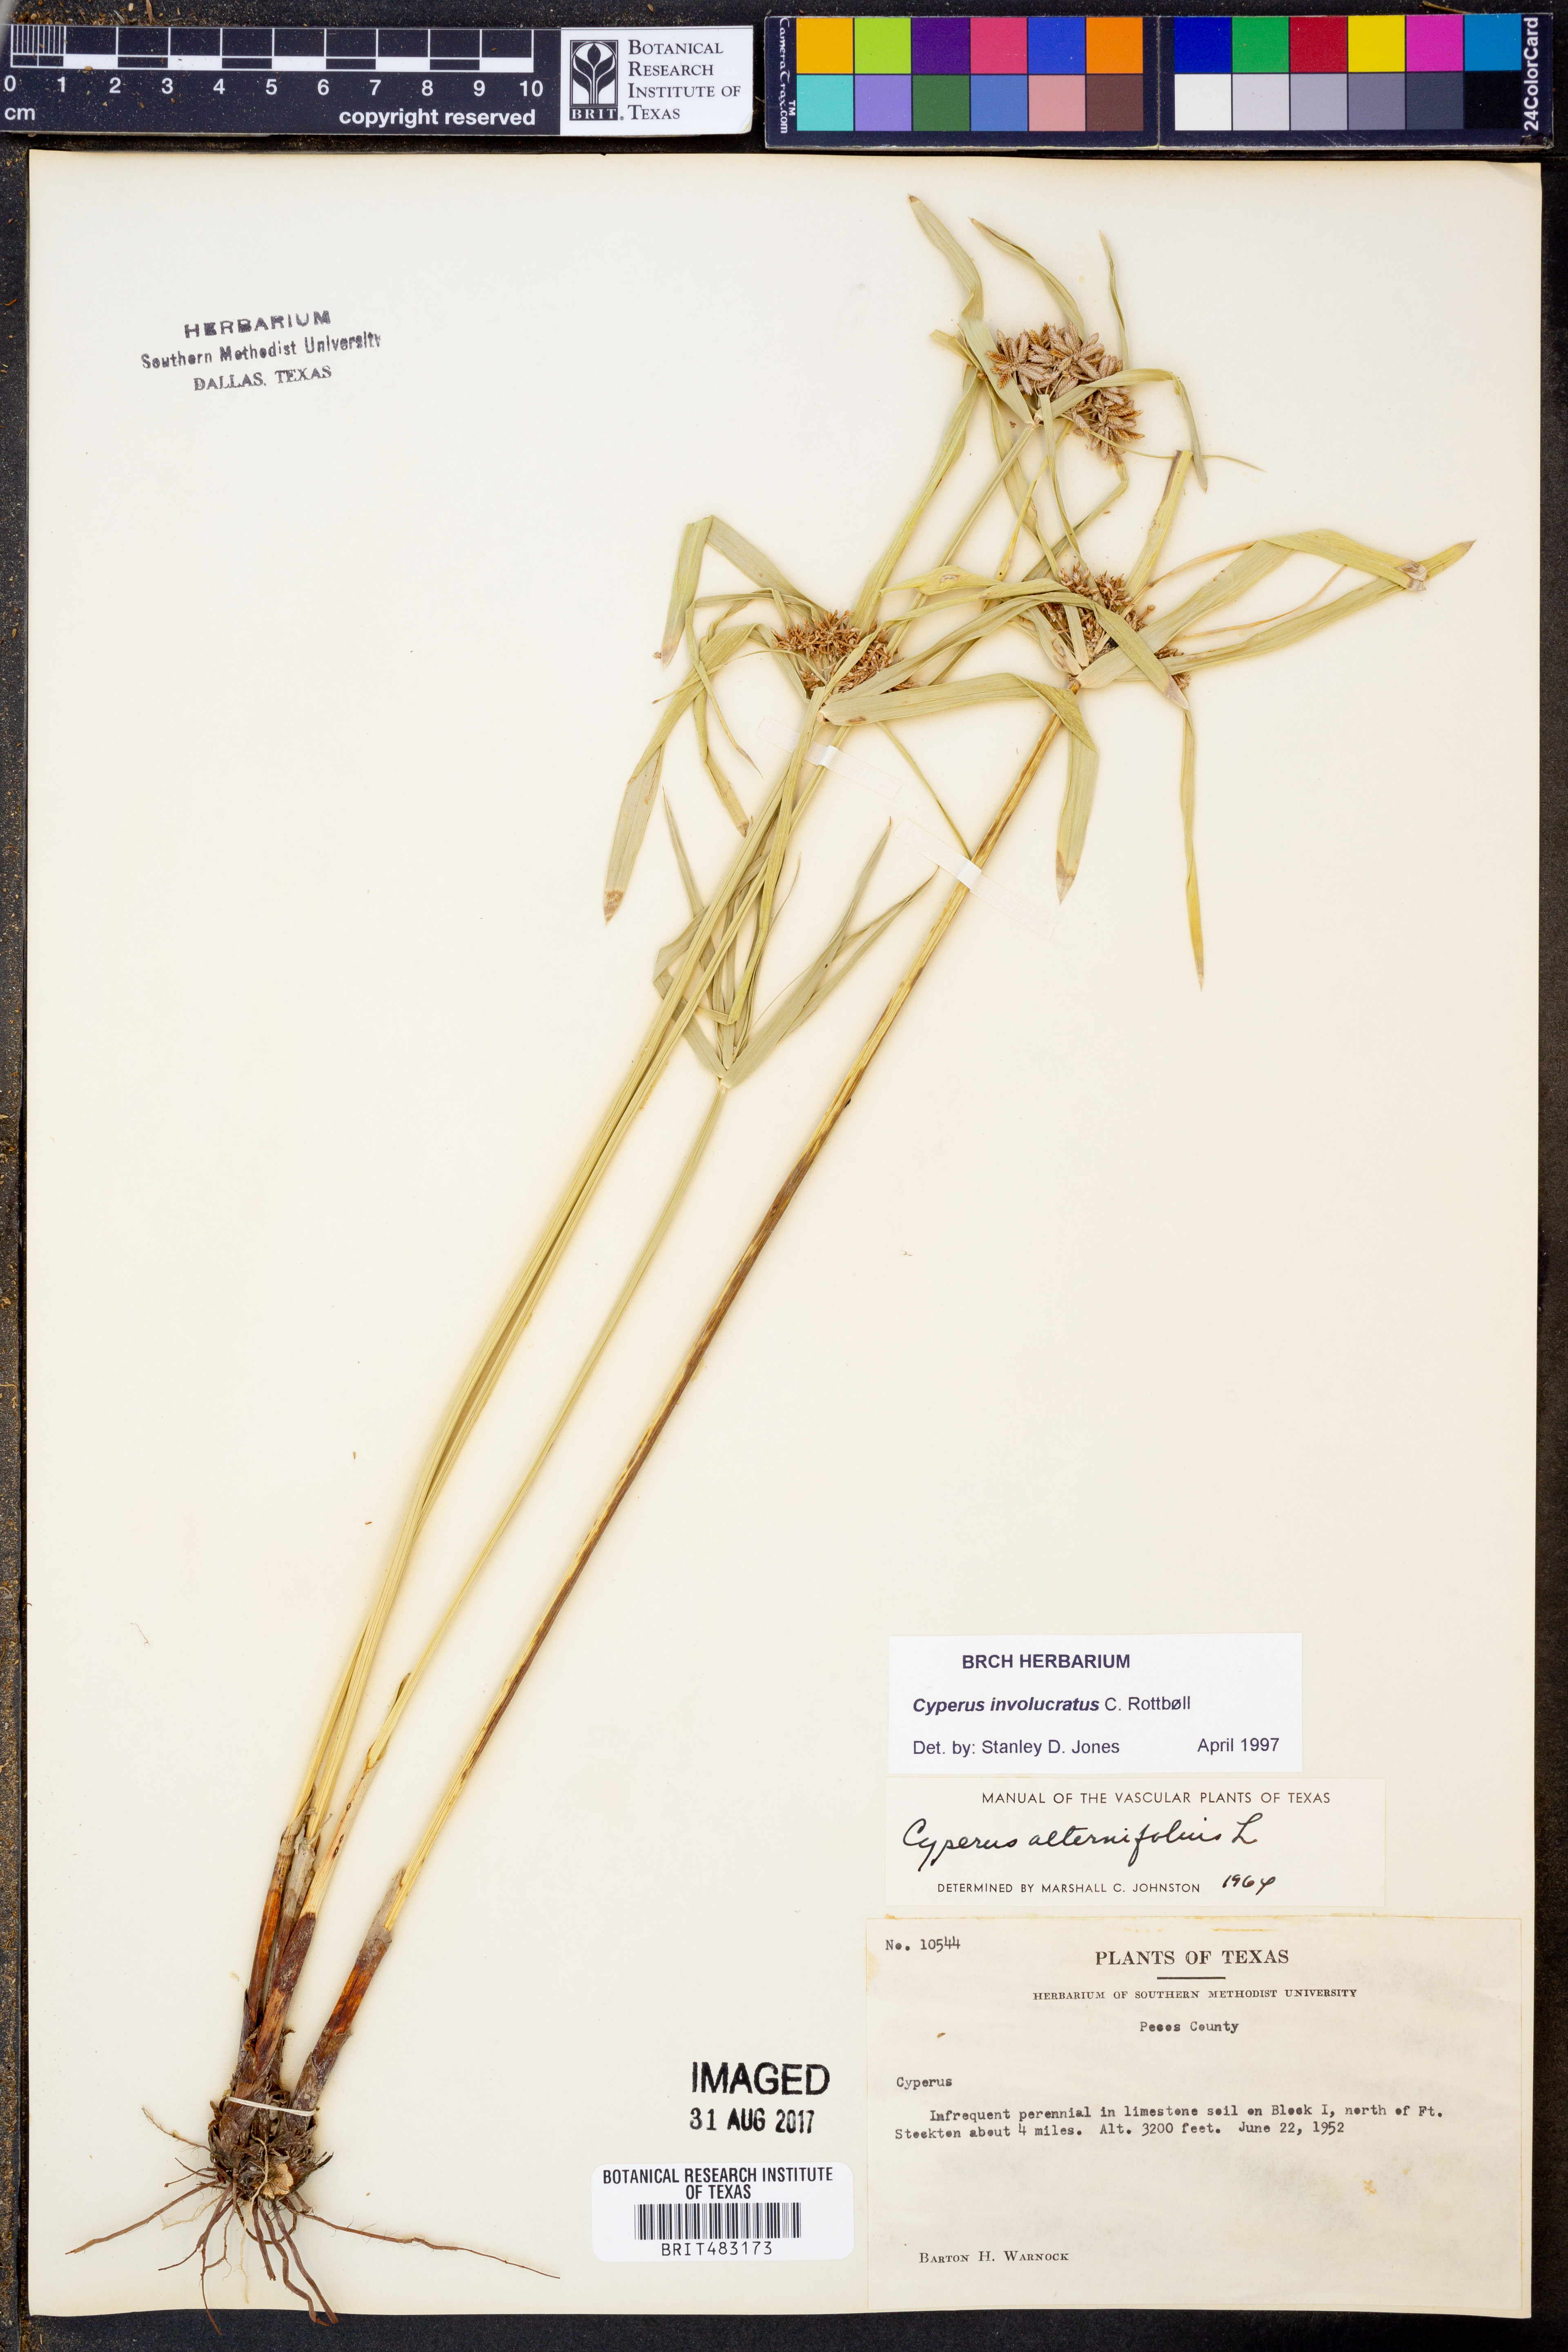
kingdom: Plantae
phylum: Tracheophyta
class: Liliopsida
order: Poales
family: Cyperaceae
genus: Cyperus
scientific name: Cyperus alternifolius
